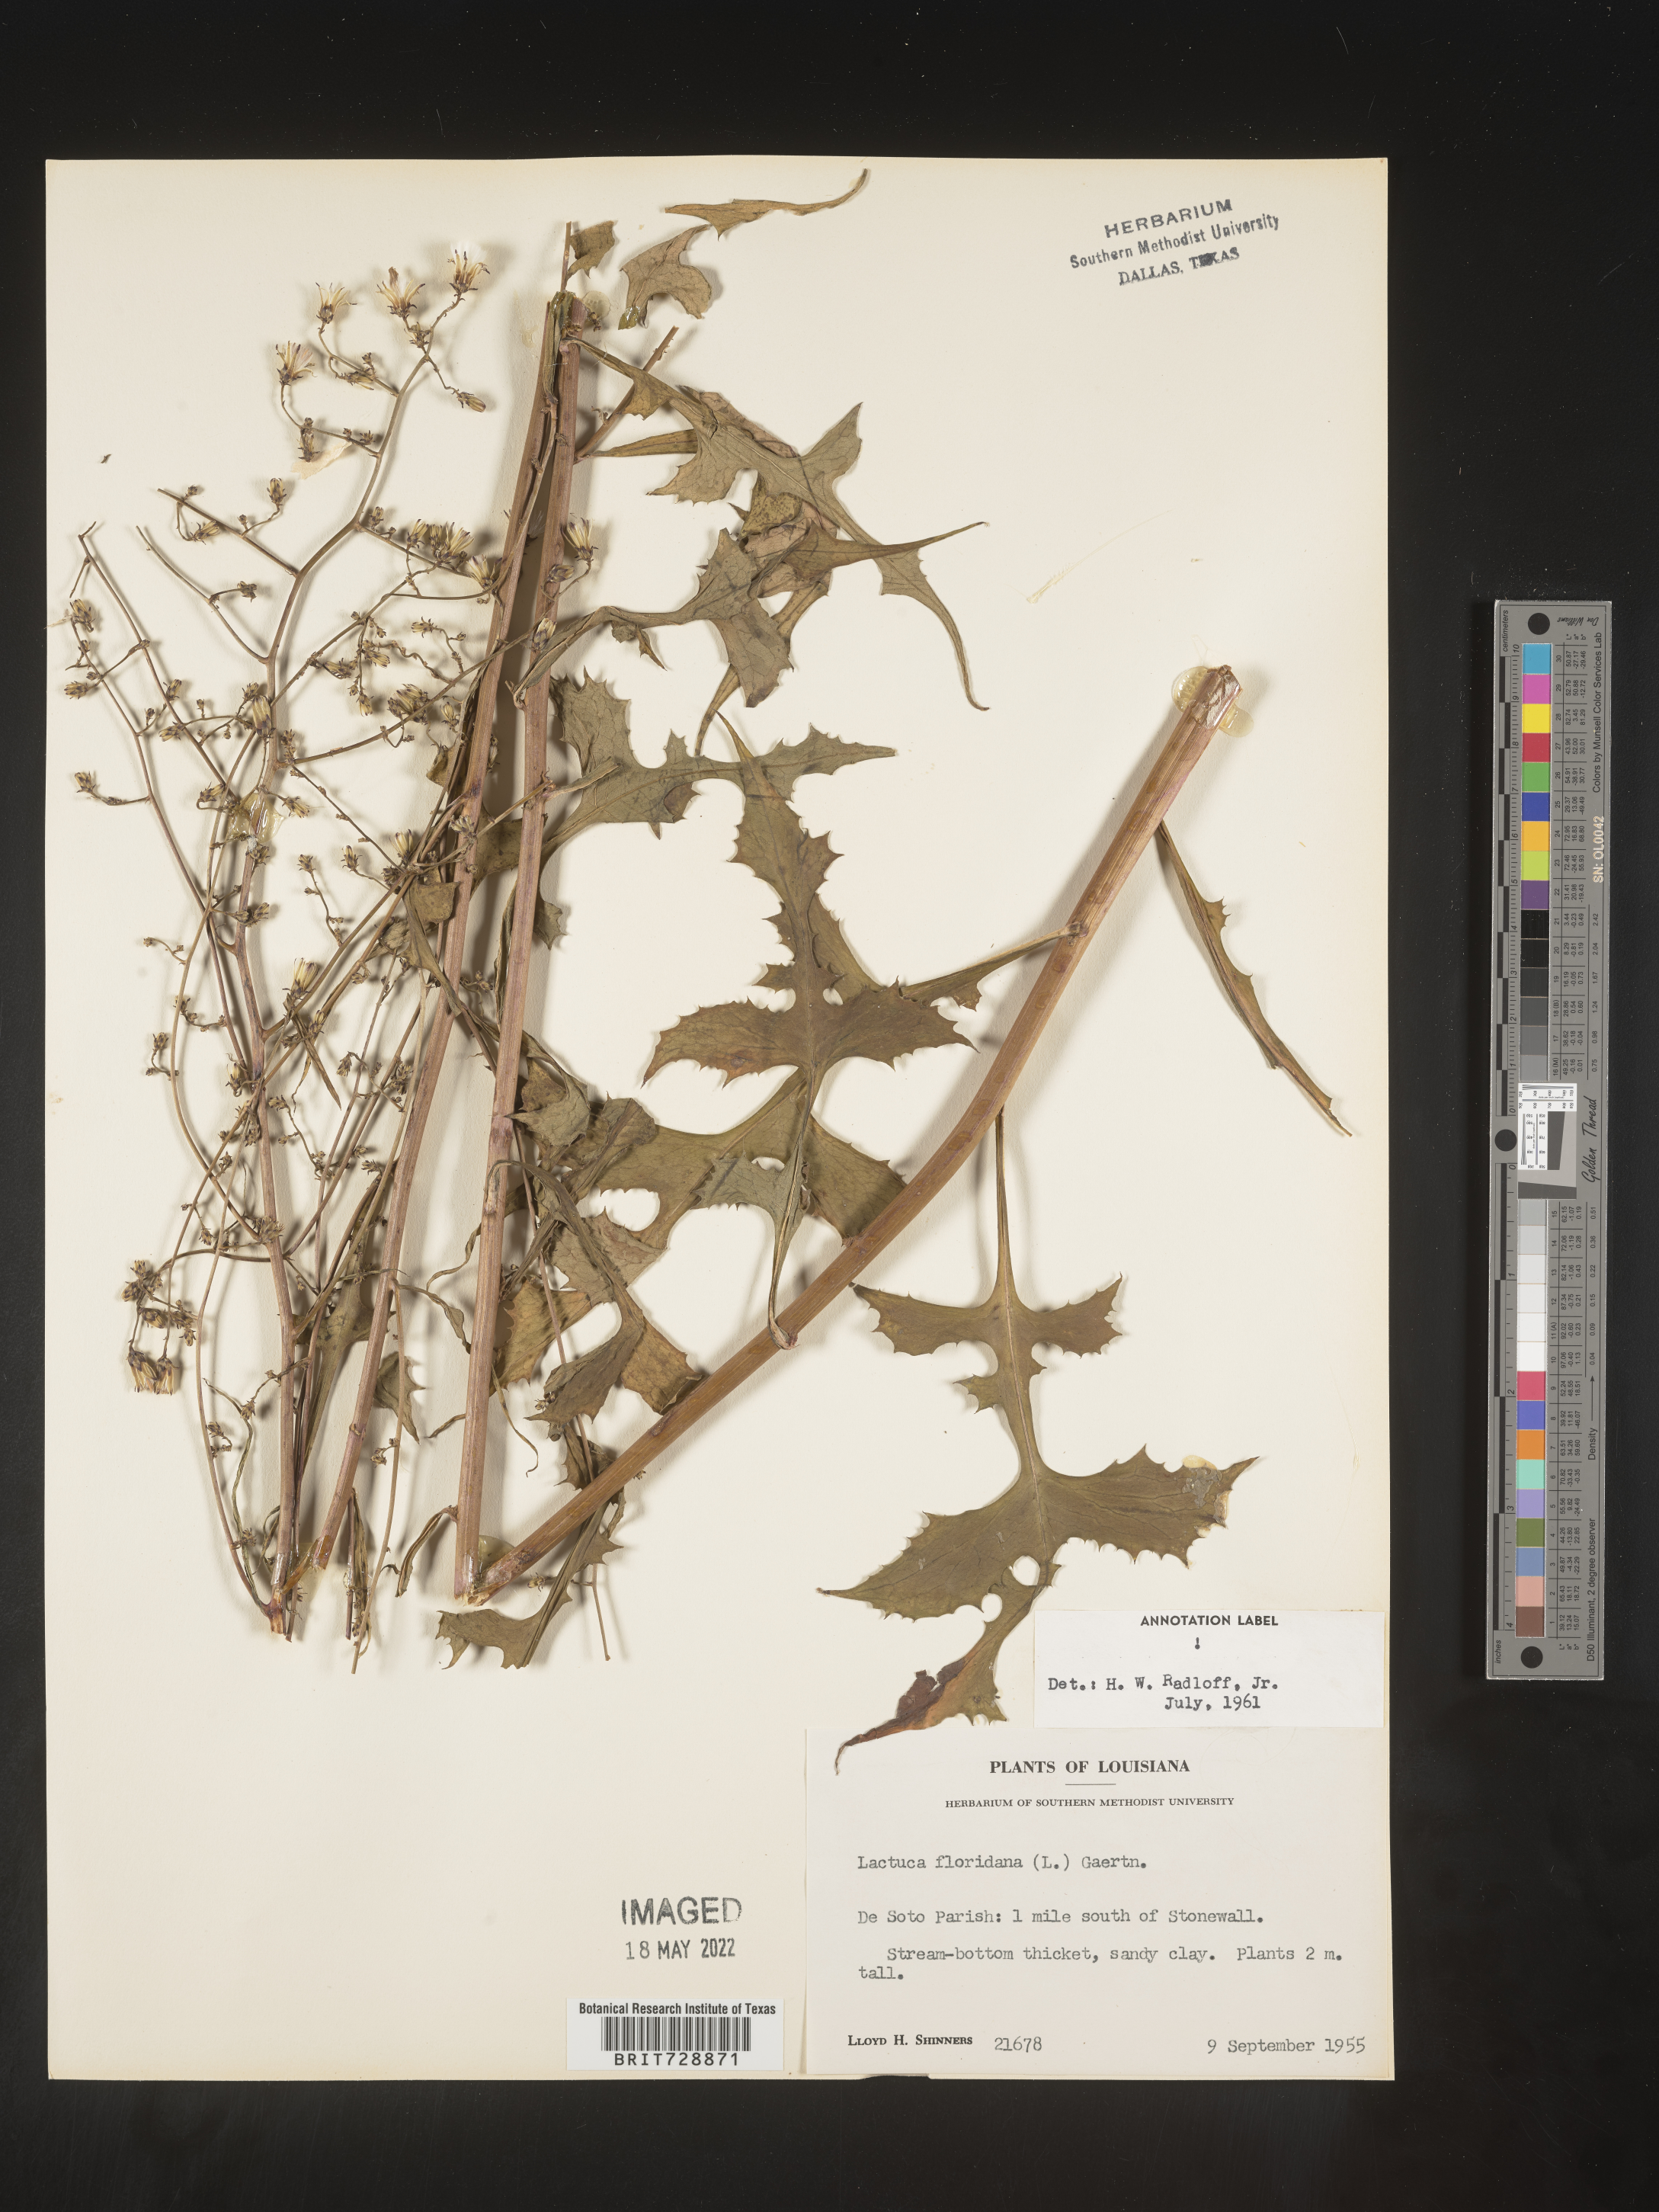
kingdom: Plantae
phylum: Tracheophyta
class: Magnoliopsida
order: Asterales
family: Asteraceae
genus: Lactuca
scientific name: Lactuca floridana
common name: Woodland lettuce
